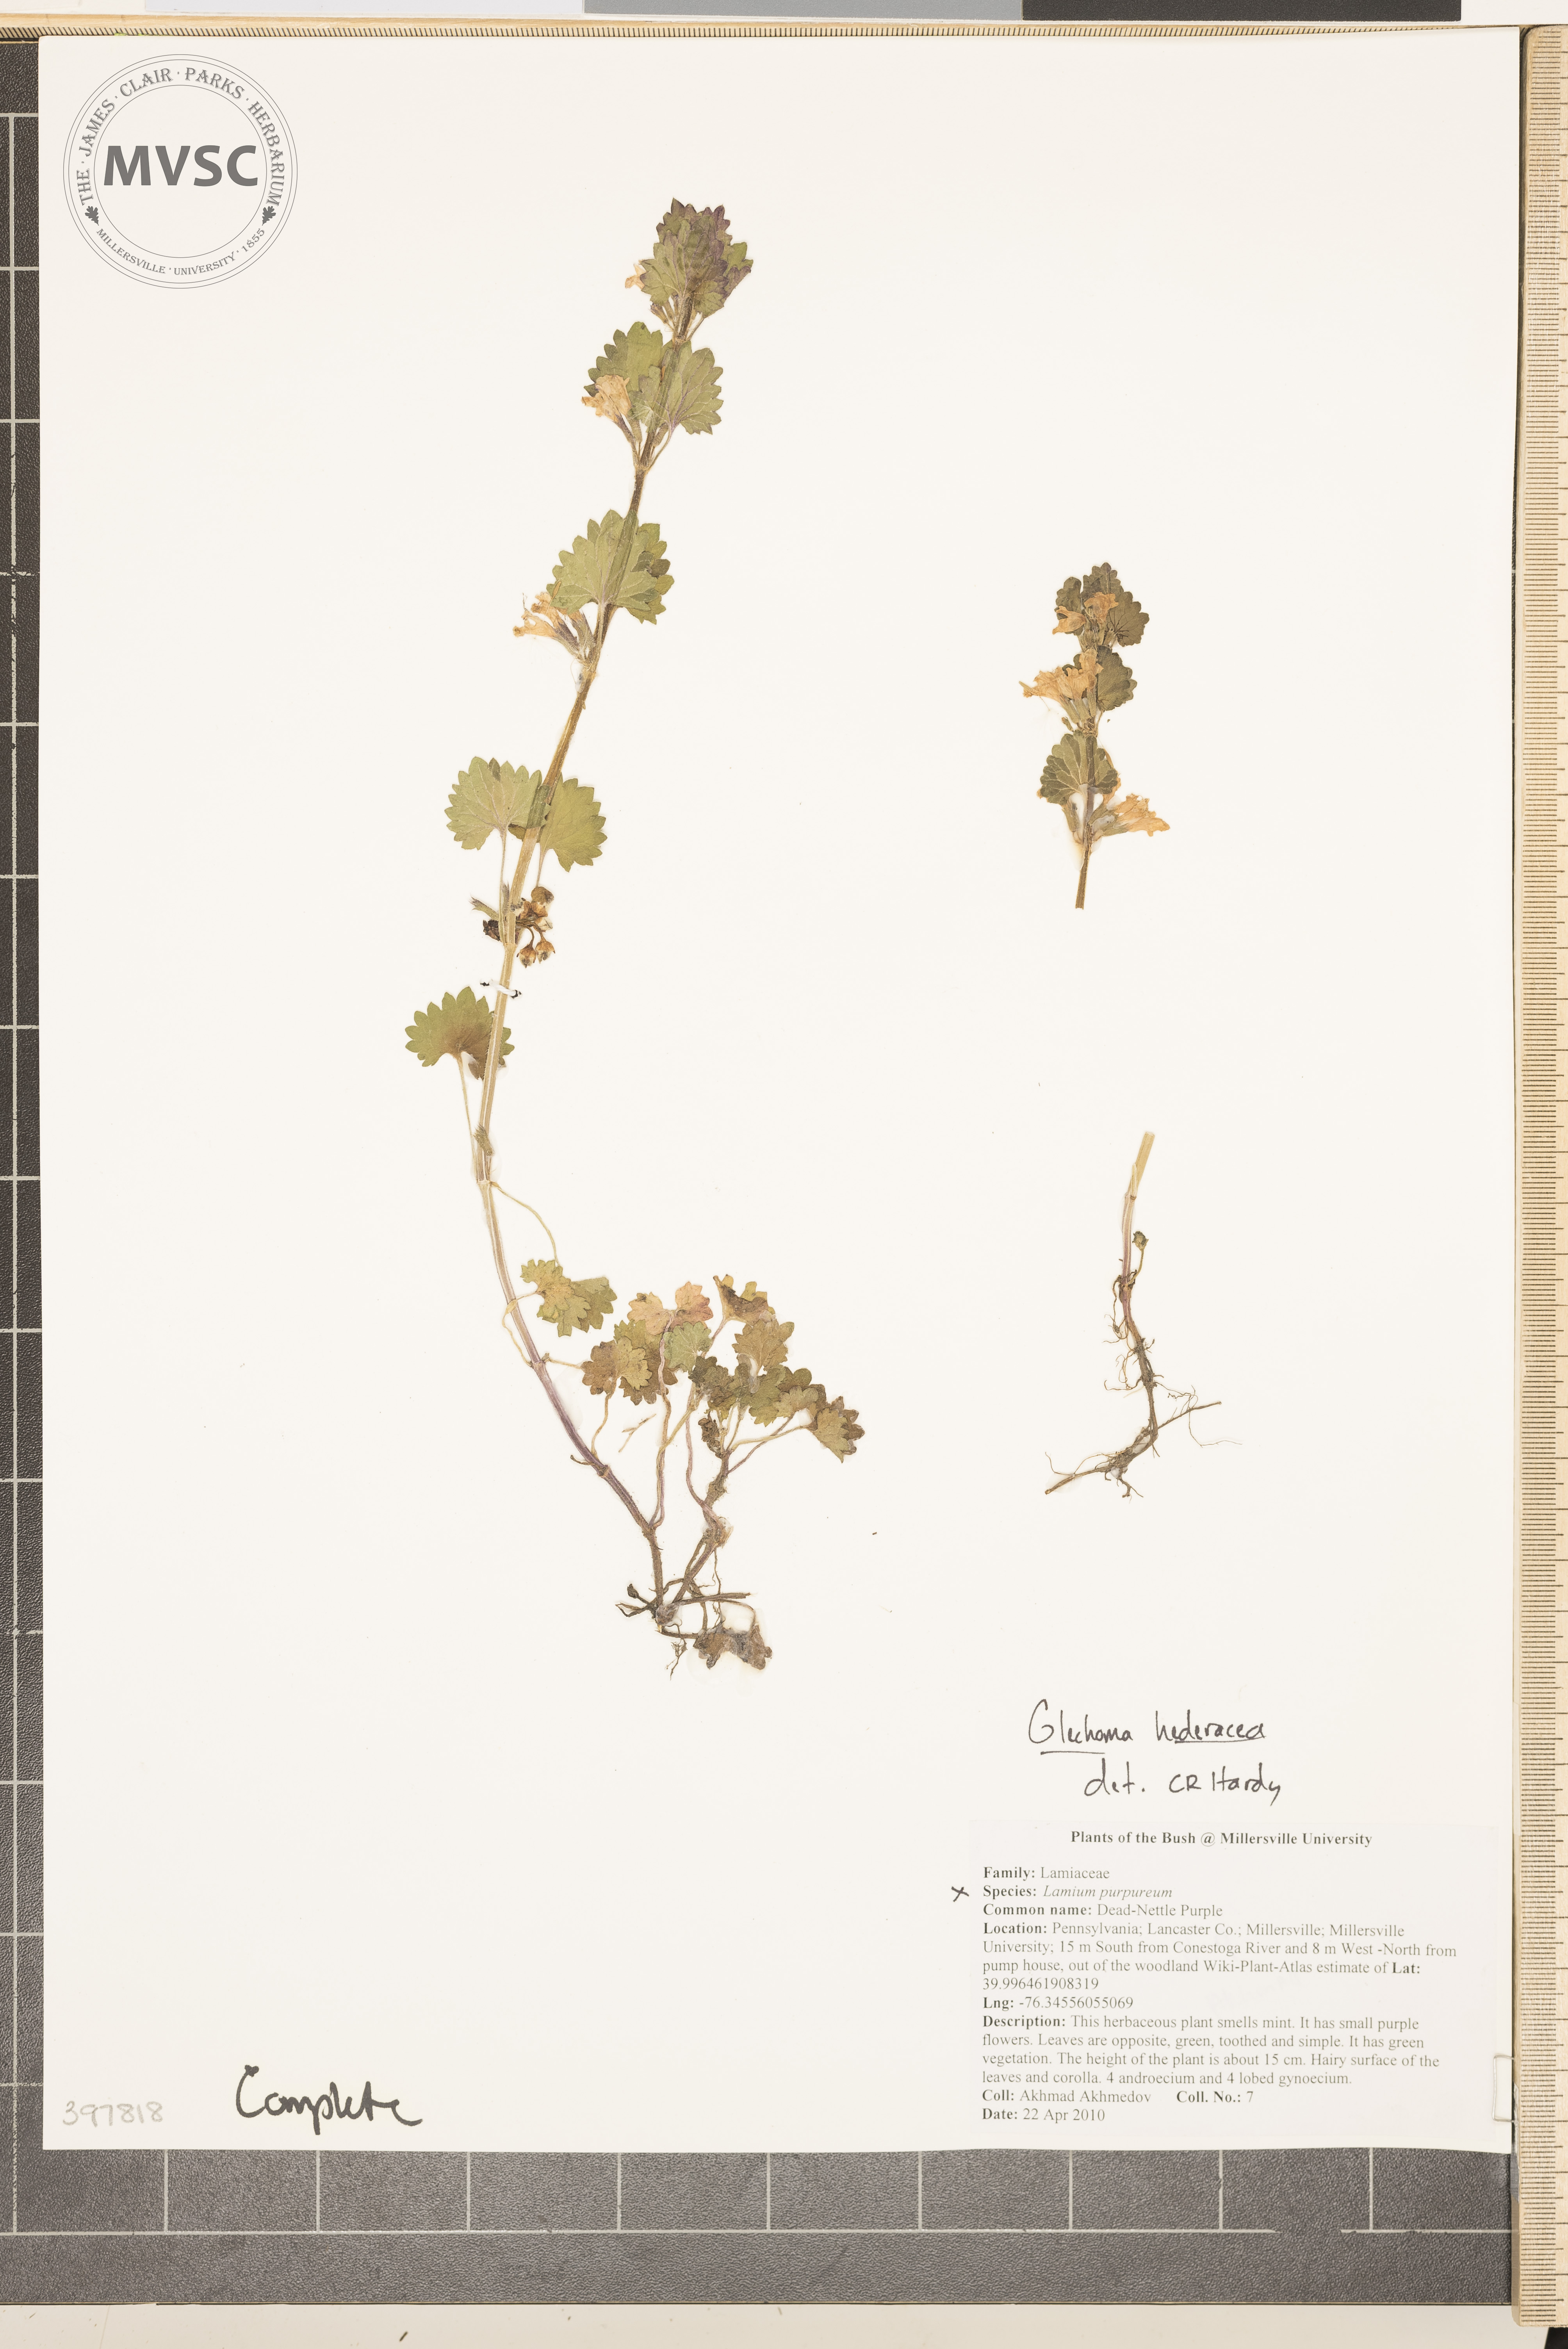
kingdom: Plantae
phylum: Tracheophyta
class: Magnoliopsida
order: Lamiales
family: Lamiaceae
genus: Glechoma
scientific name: Glechoma hederacea
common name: Gill-over-the-ground
